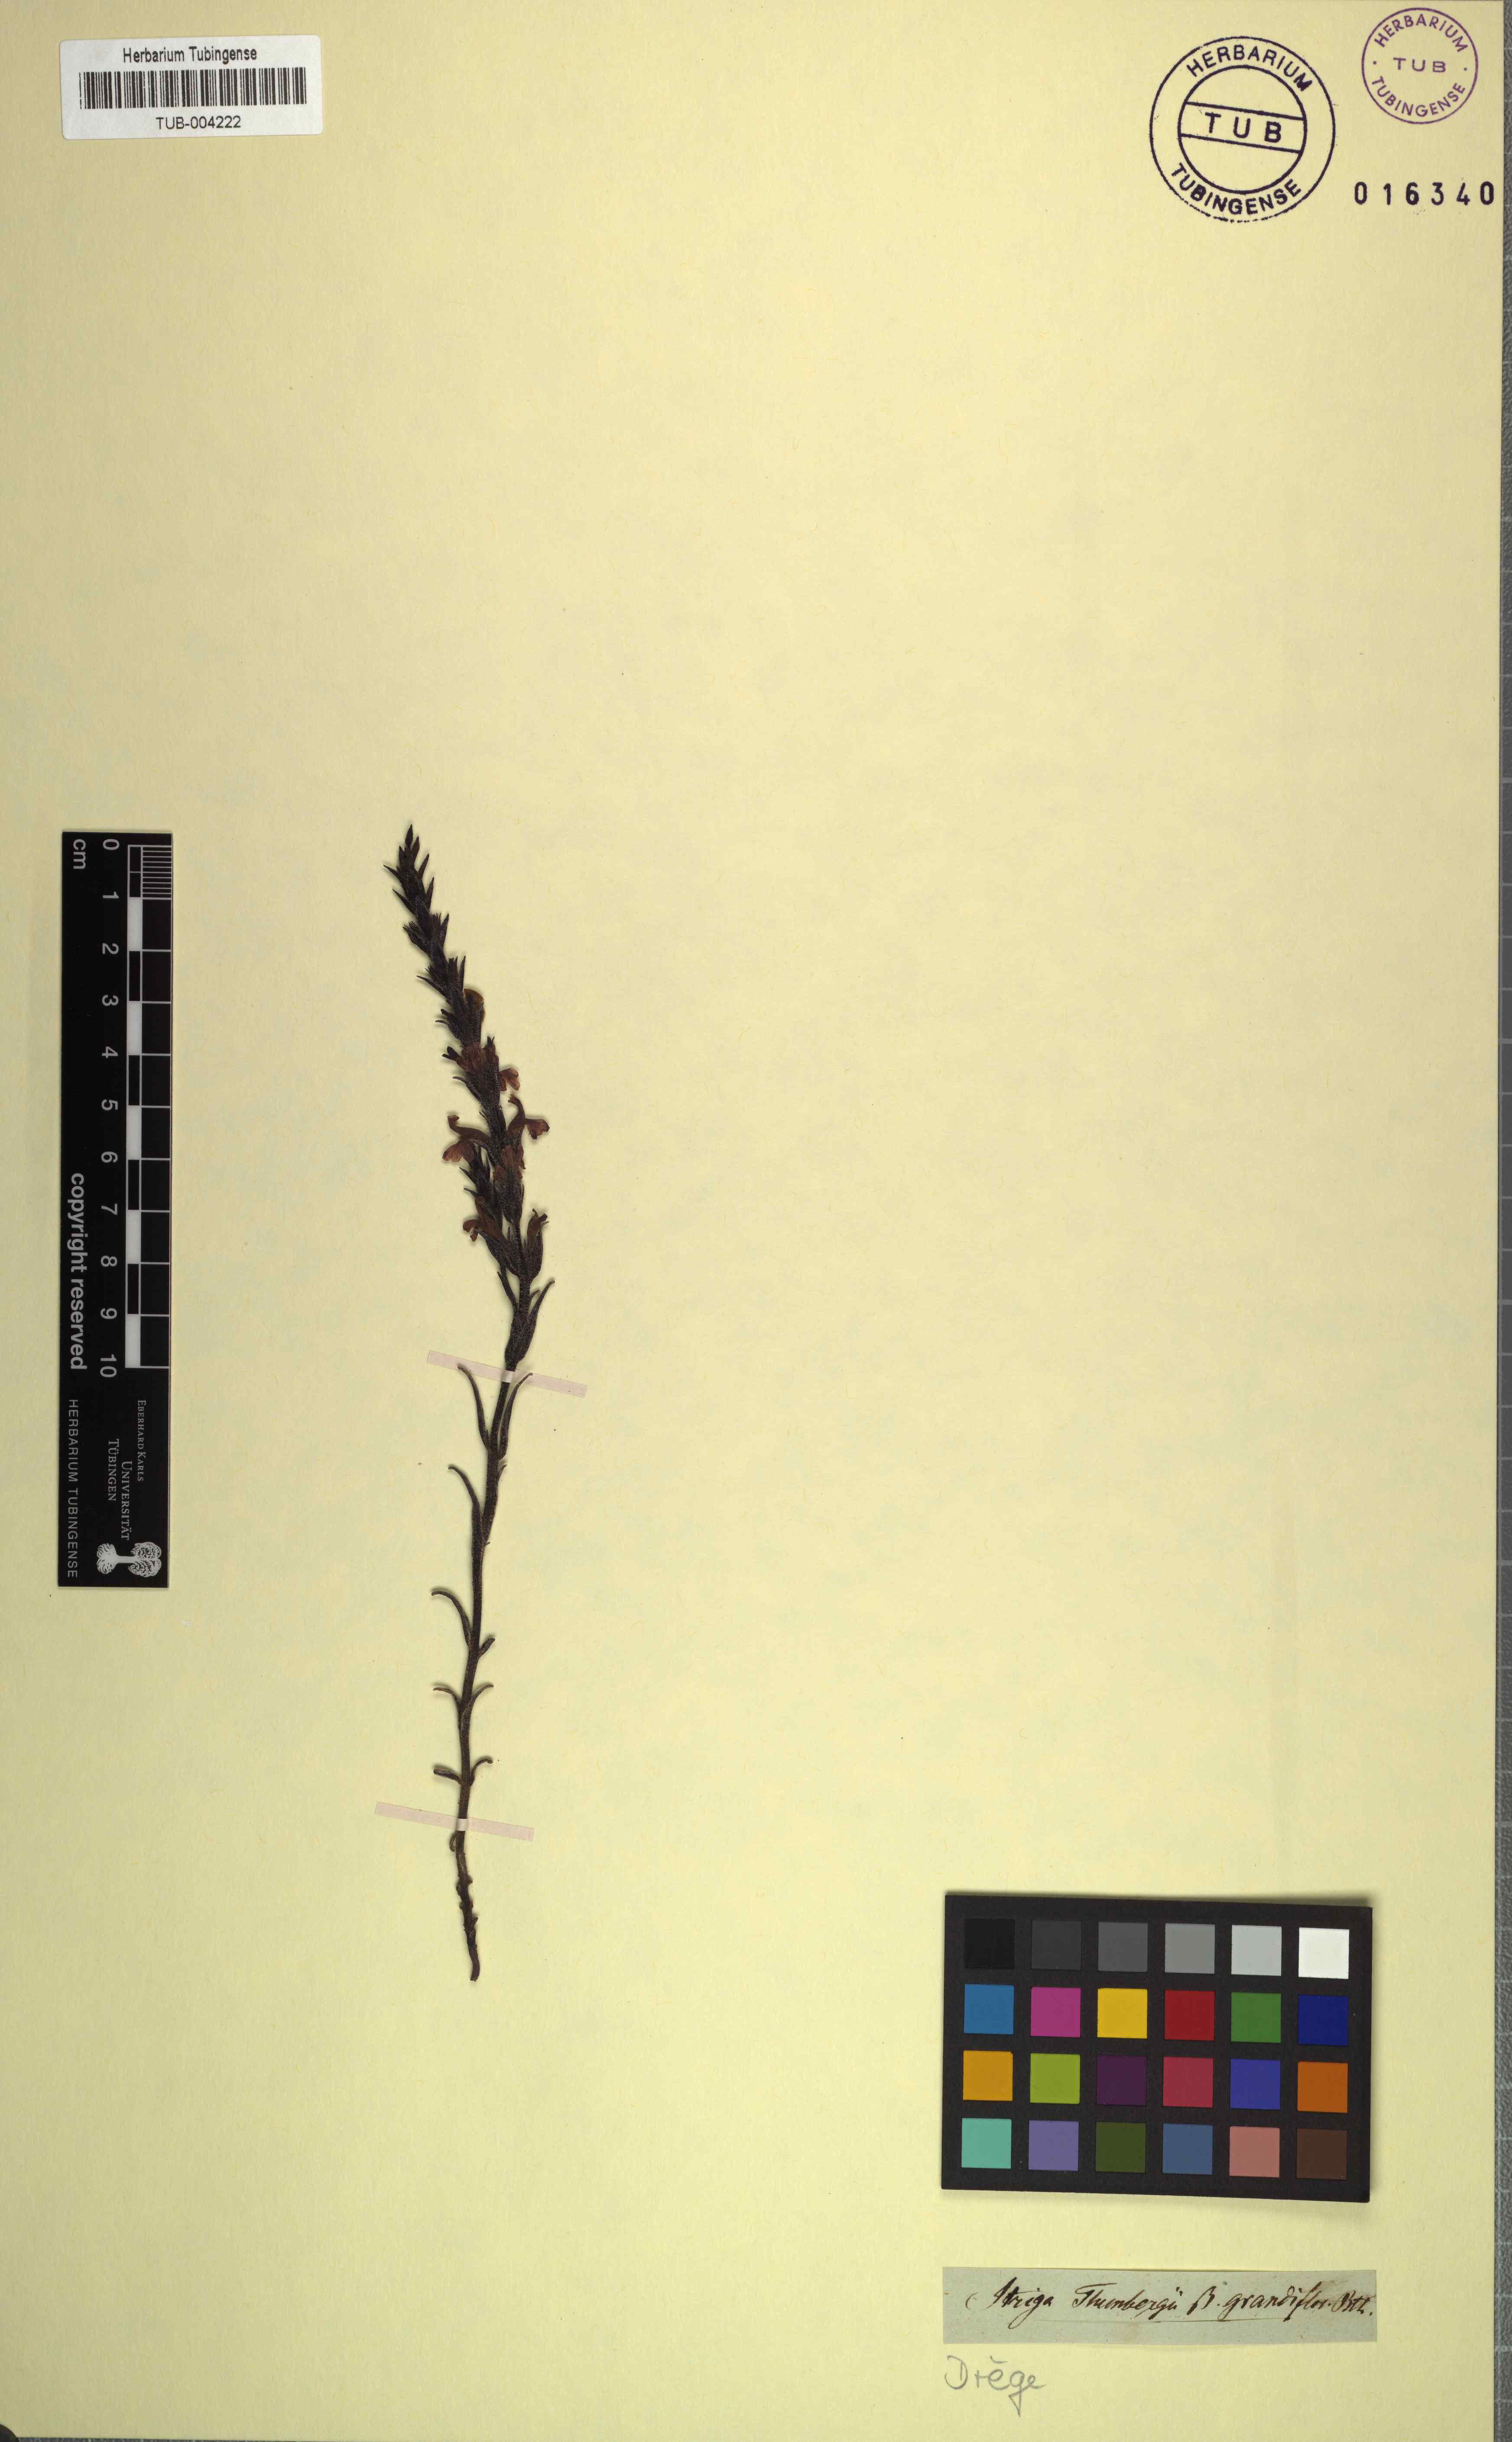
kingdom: Plantae
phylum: Tracheophyta
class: Magnoliopsida
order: Lamiales
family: Orobanchaceae
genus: Striga
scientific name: Striga bilabiata
